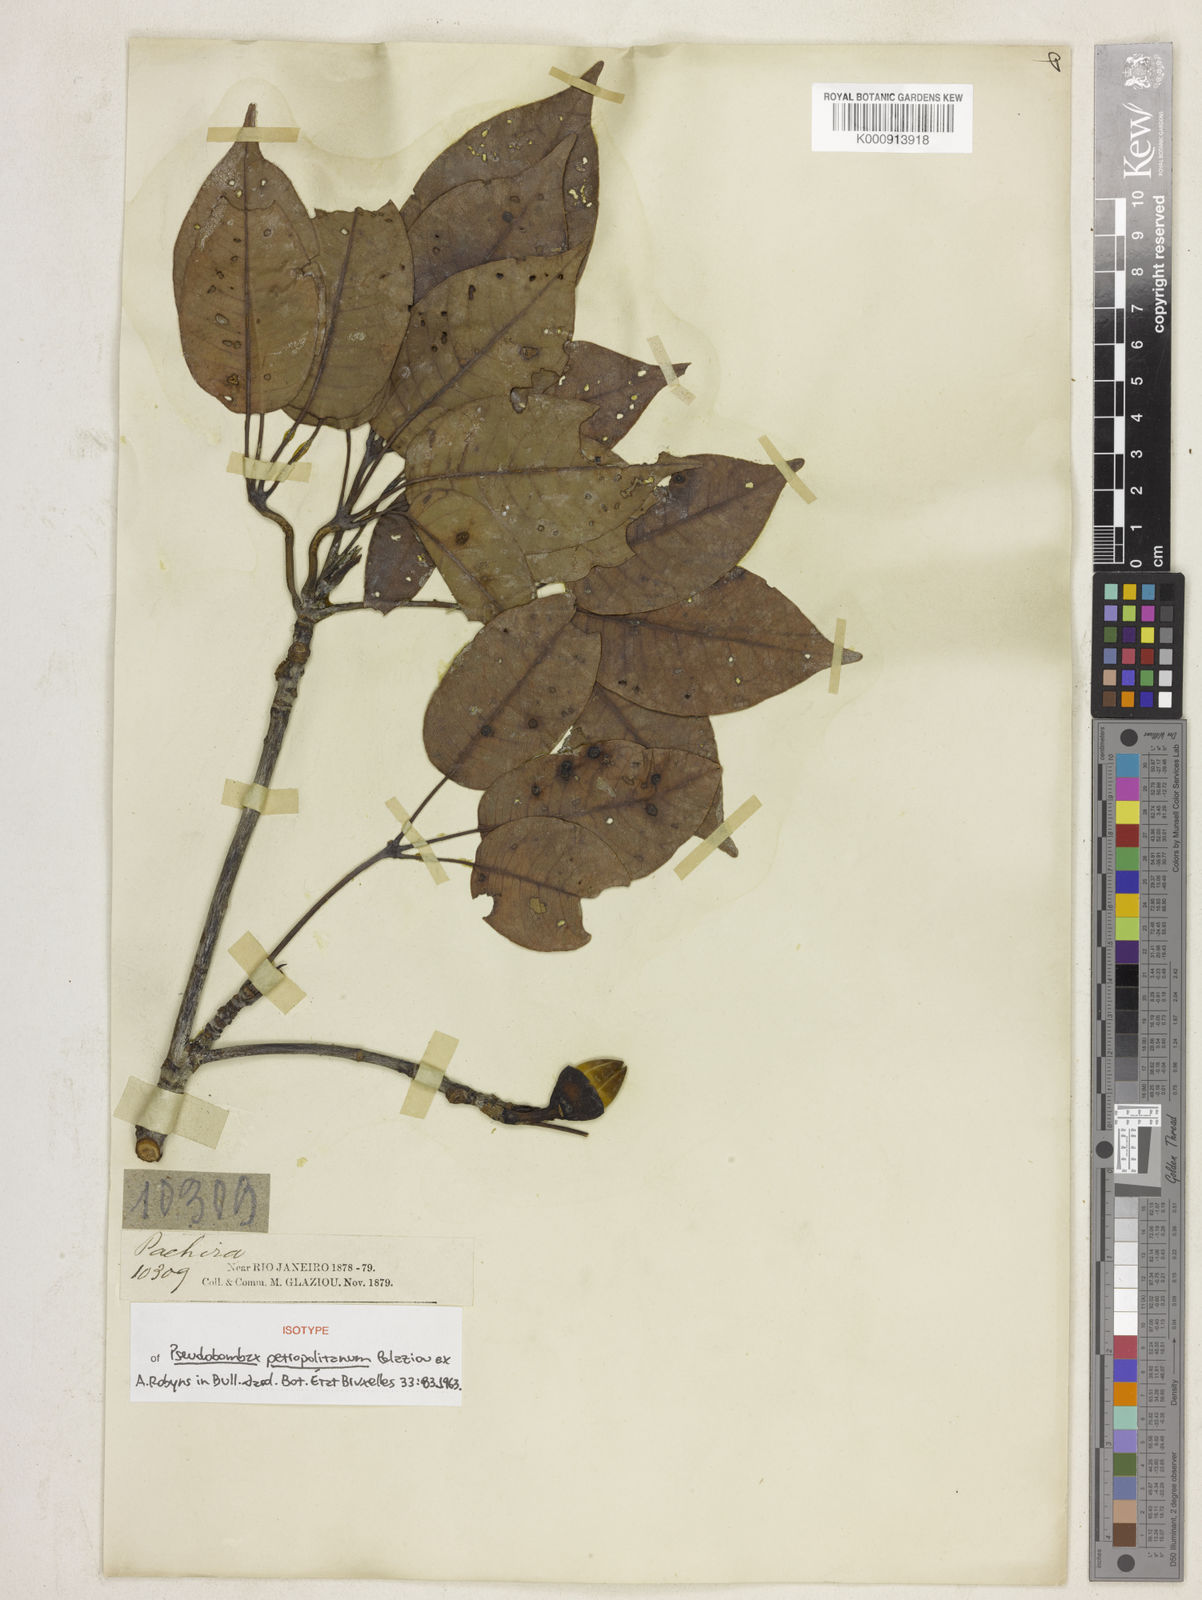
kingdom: Plantae
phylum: Tracheophyta
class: Magnoliopsida
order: Malvales
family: Malvaceae
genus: Pseudobombax
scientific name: Pseudobombax petropolitanum
